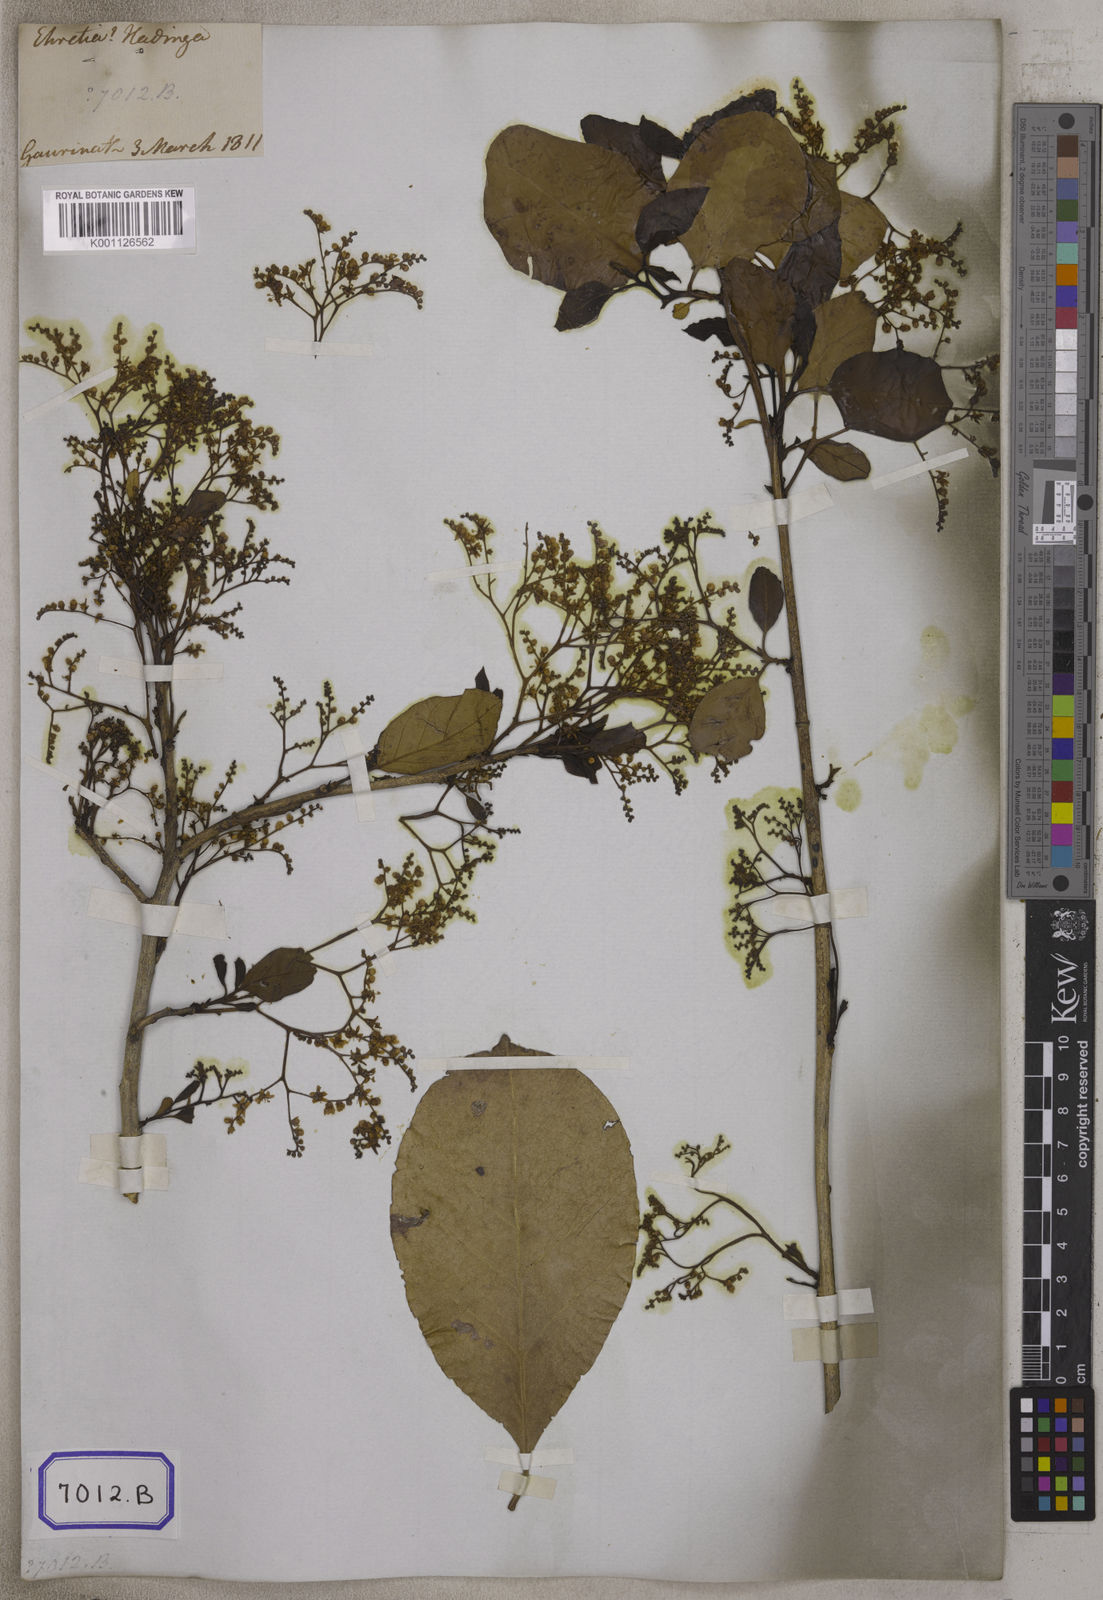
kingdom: Plantae
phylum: Tracheophyta
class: Magnoliopsida
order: Boraginales
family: Ehretiaceae
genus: Ehretia
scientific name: Ehretia aspera
